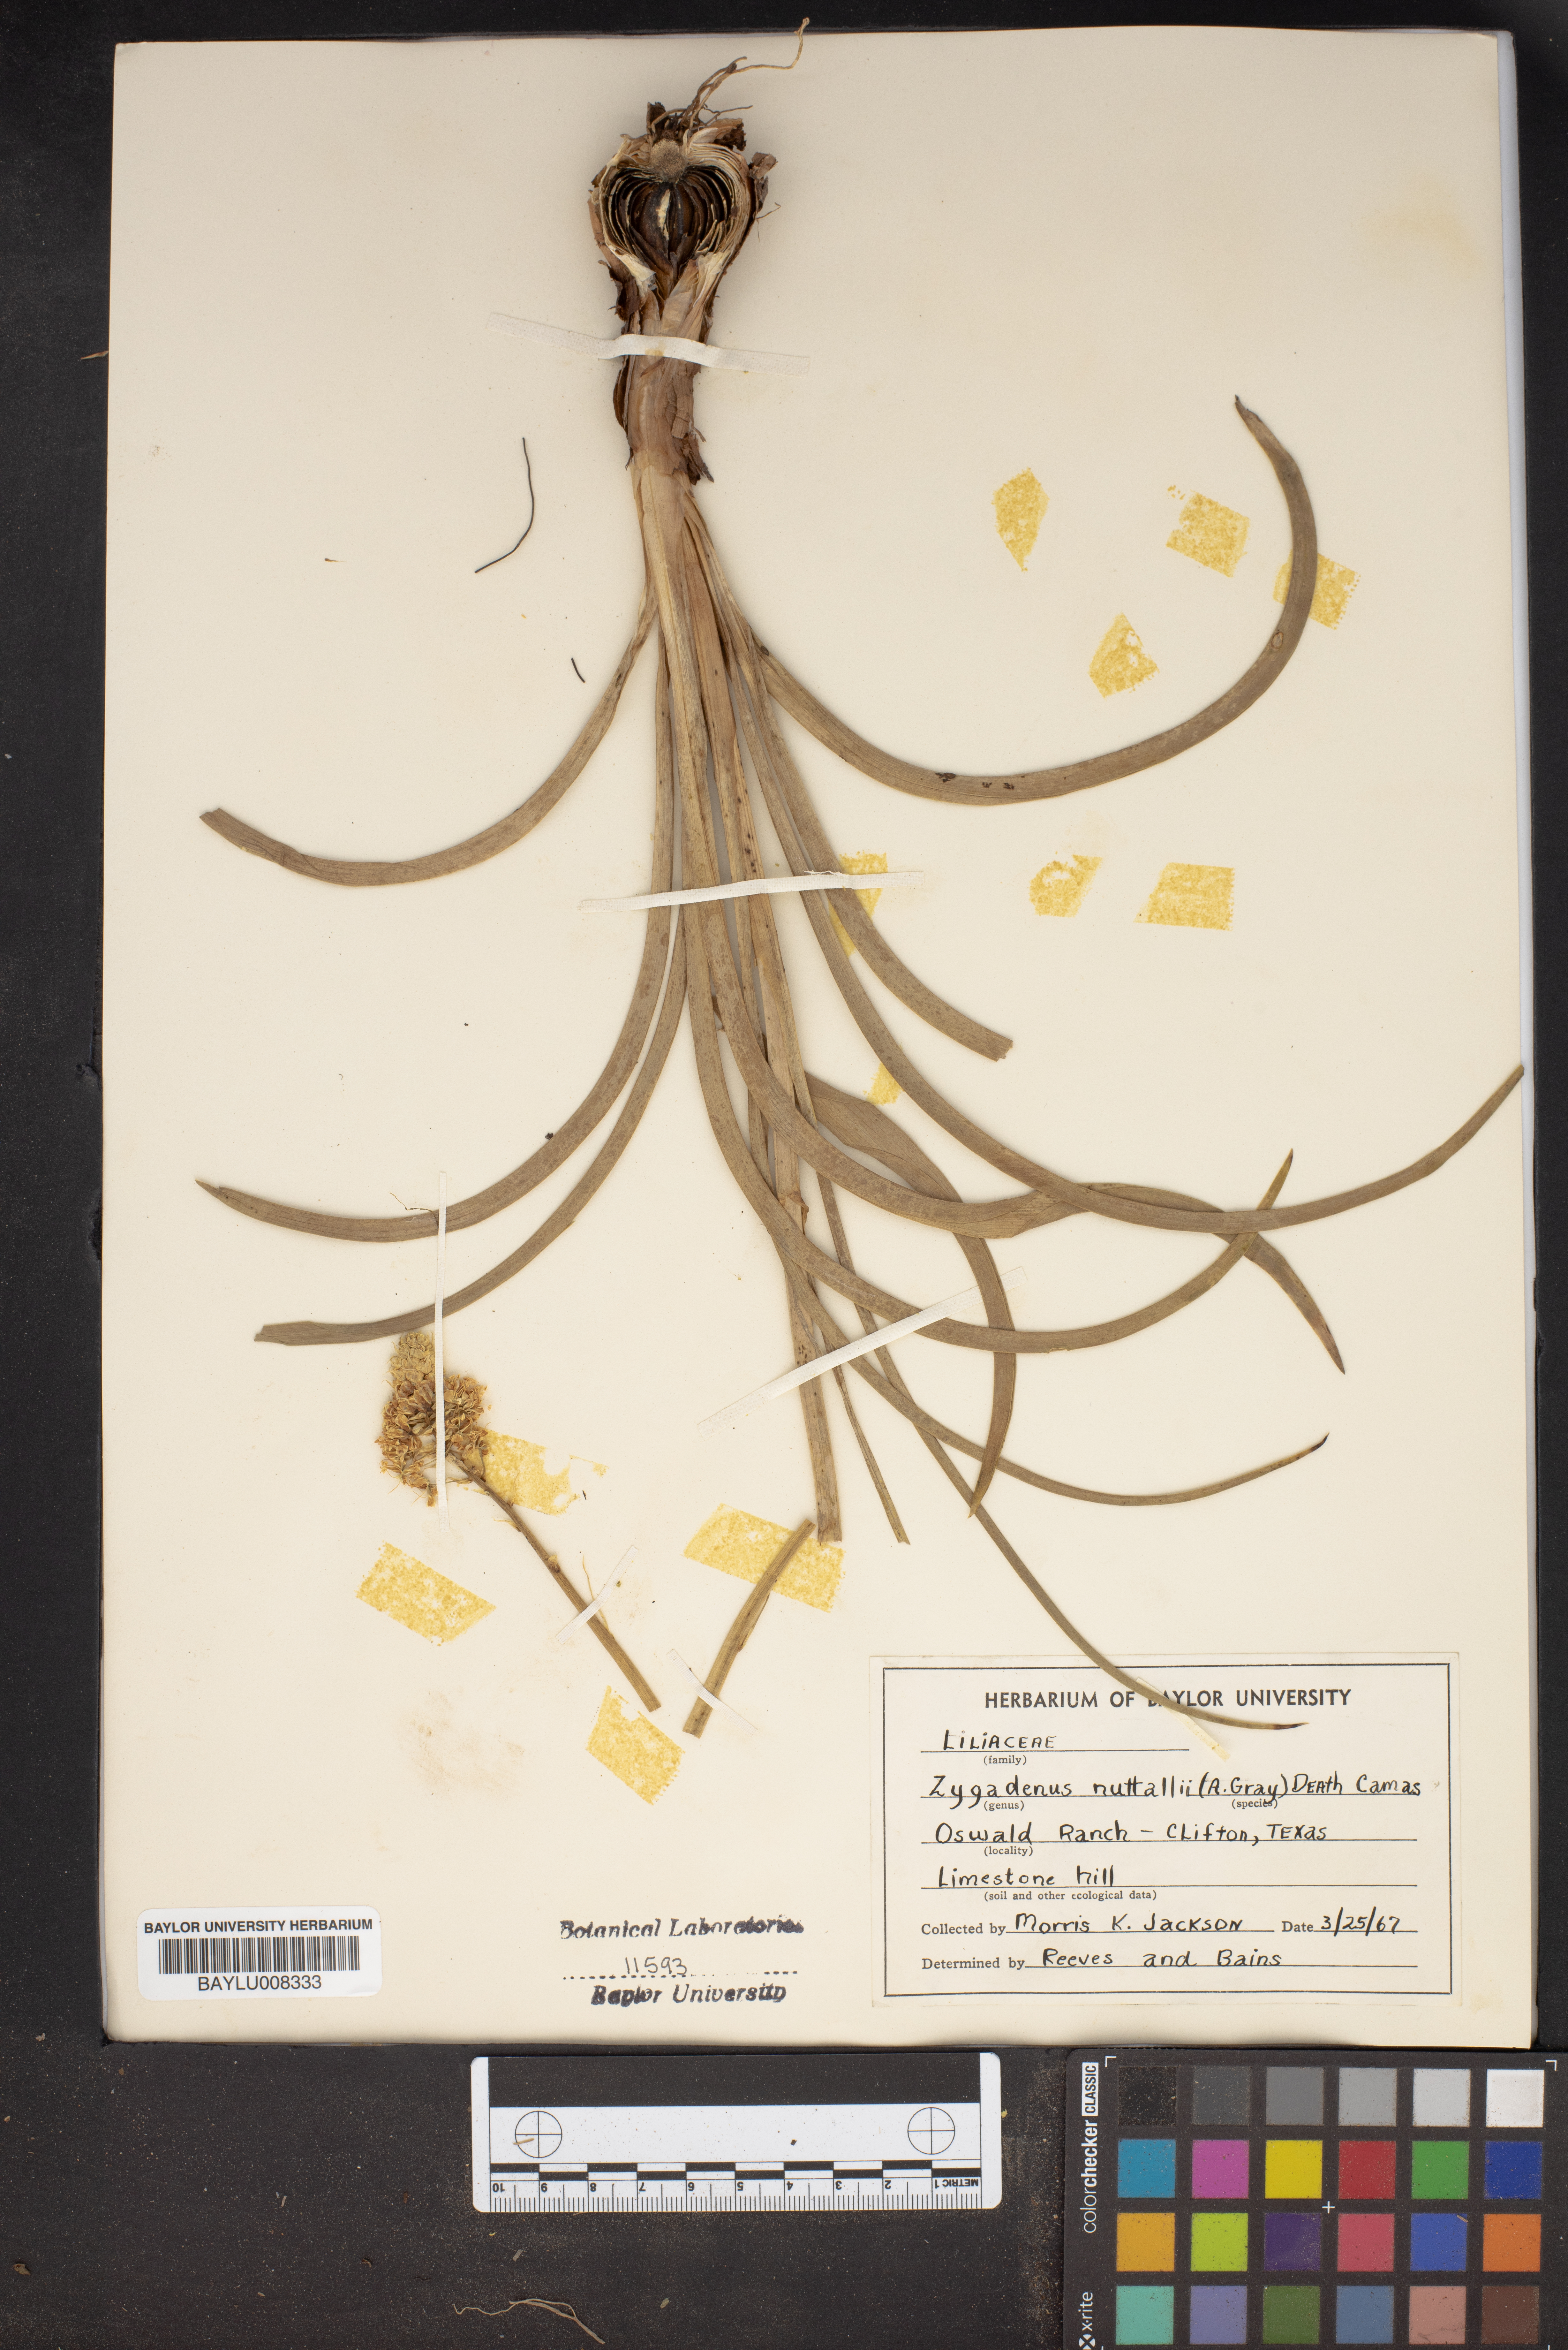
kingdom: Plantae
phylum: Tracheophyta
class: Liliopsida
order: Liliales
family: Melanthiaceae
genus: Toxicoscordion
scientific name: Toxicoscordion nuttallii
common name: Poison sego
